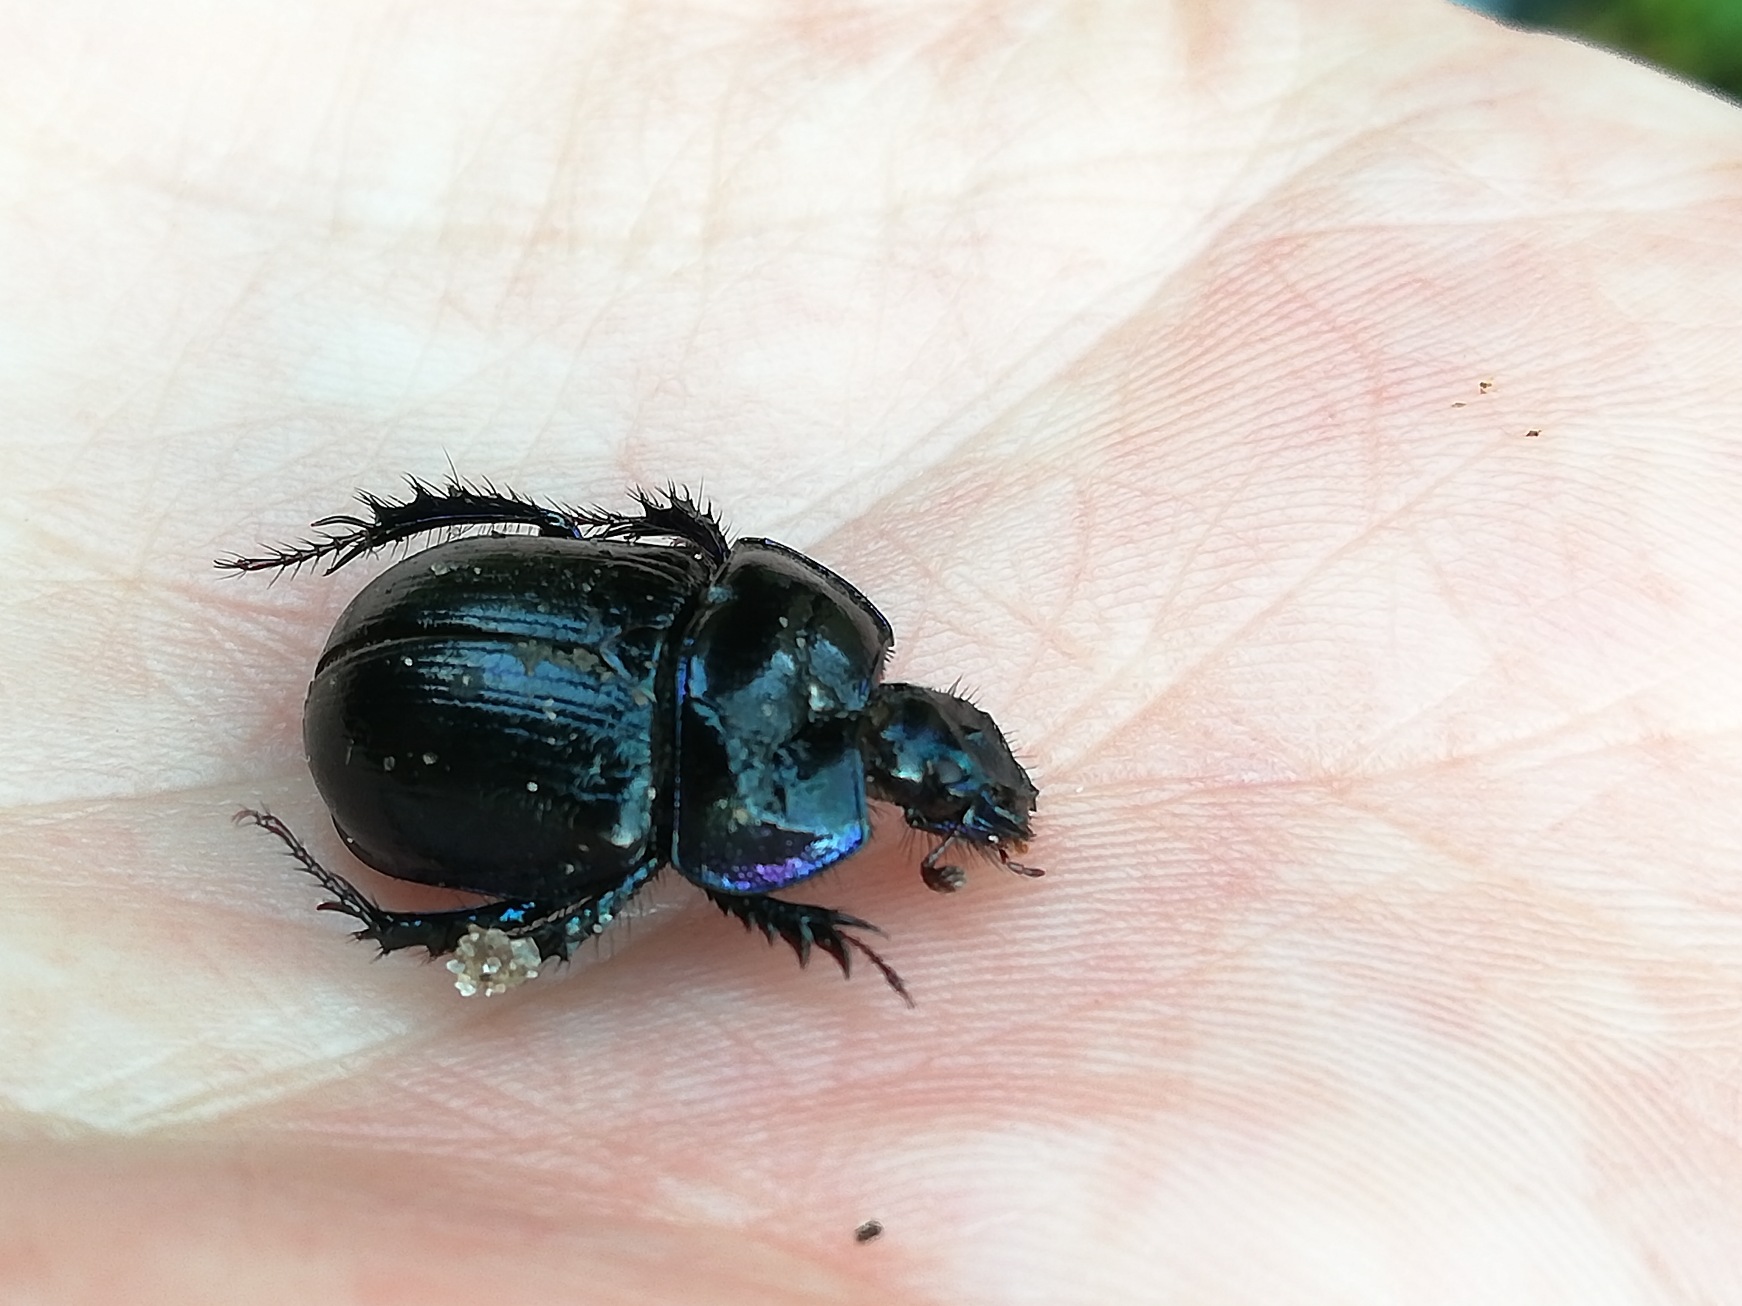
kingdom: Animalia
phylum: Arthropoda
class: Insecta
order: Coleoptera
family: Geotrupidae
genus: Anoplotrupes
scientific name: Anoplotrupes stercorosus
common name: Skovskarnbasse
